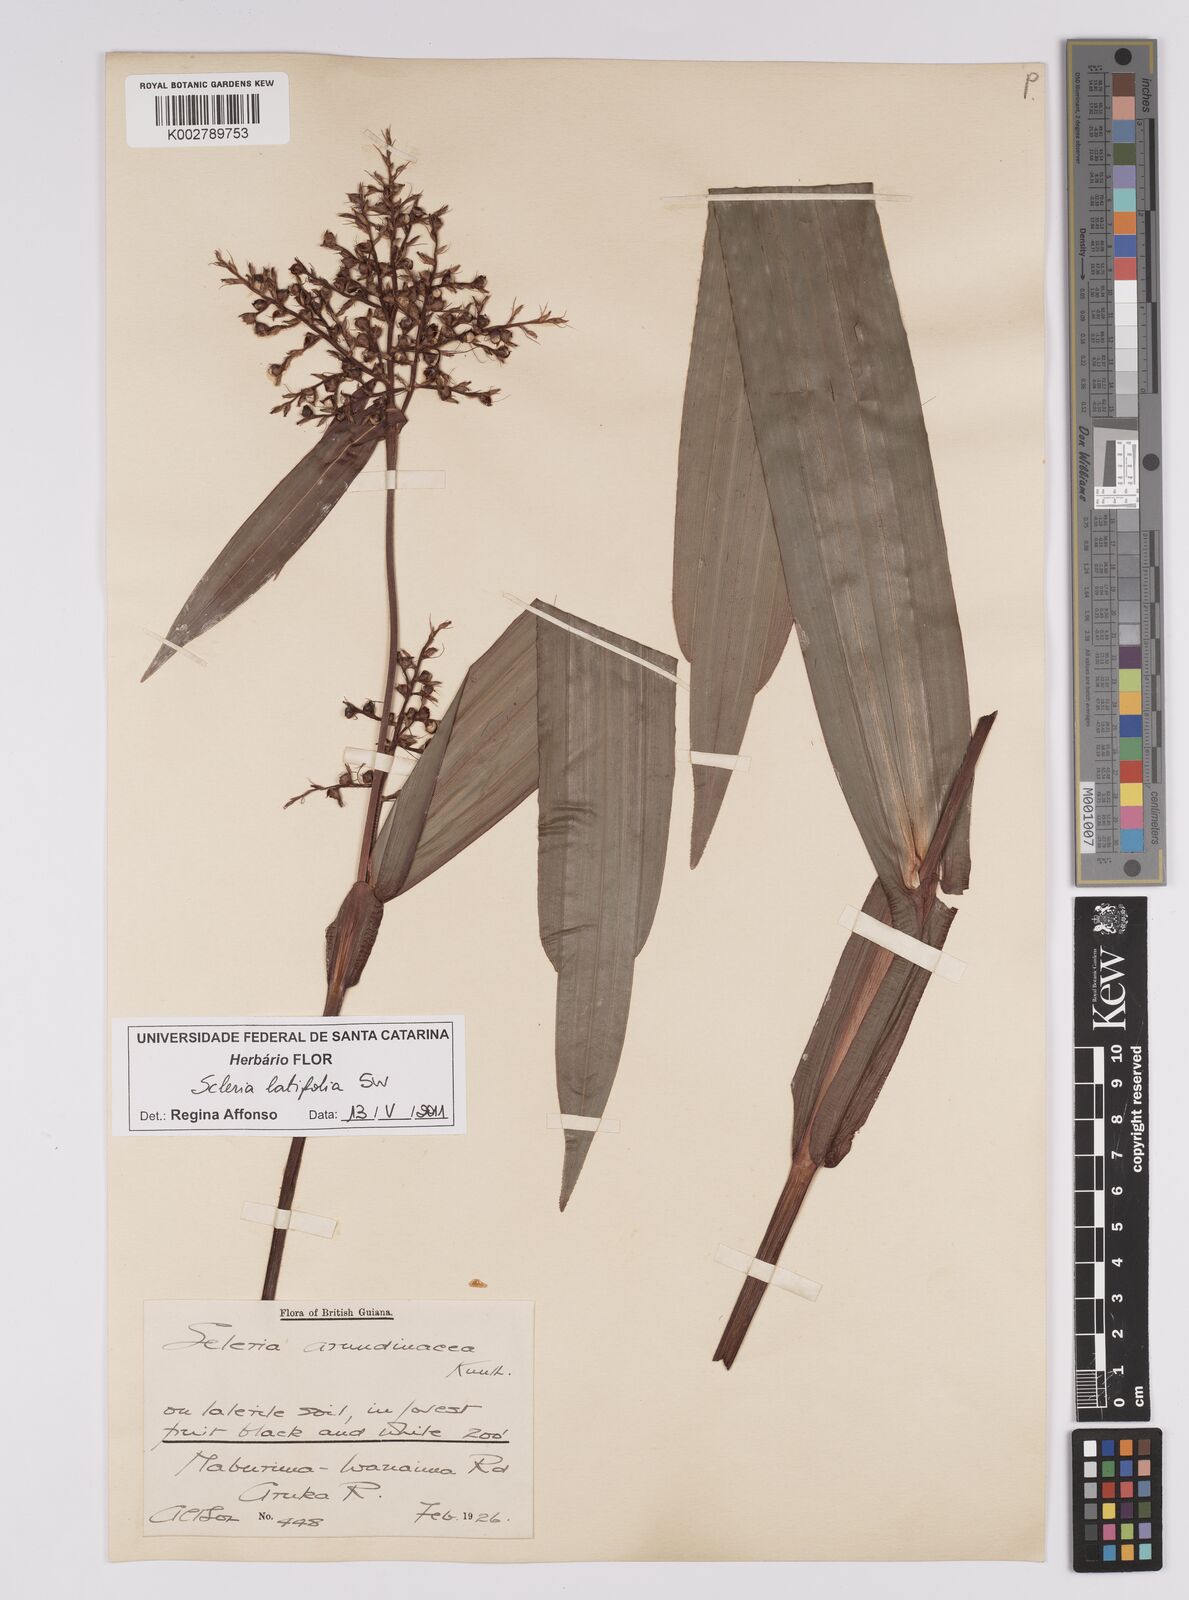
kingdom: Plantae
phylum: Tracheophyta
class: Liliopsida
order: Poales
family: Cyperaceae
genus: Scleria
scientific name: Scleria latifolia
